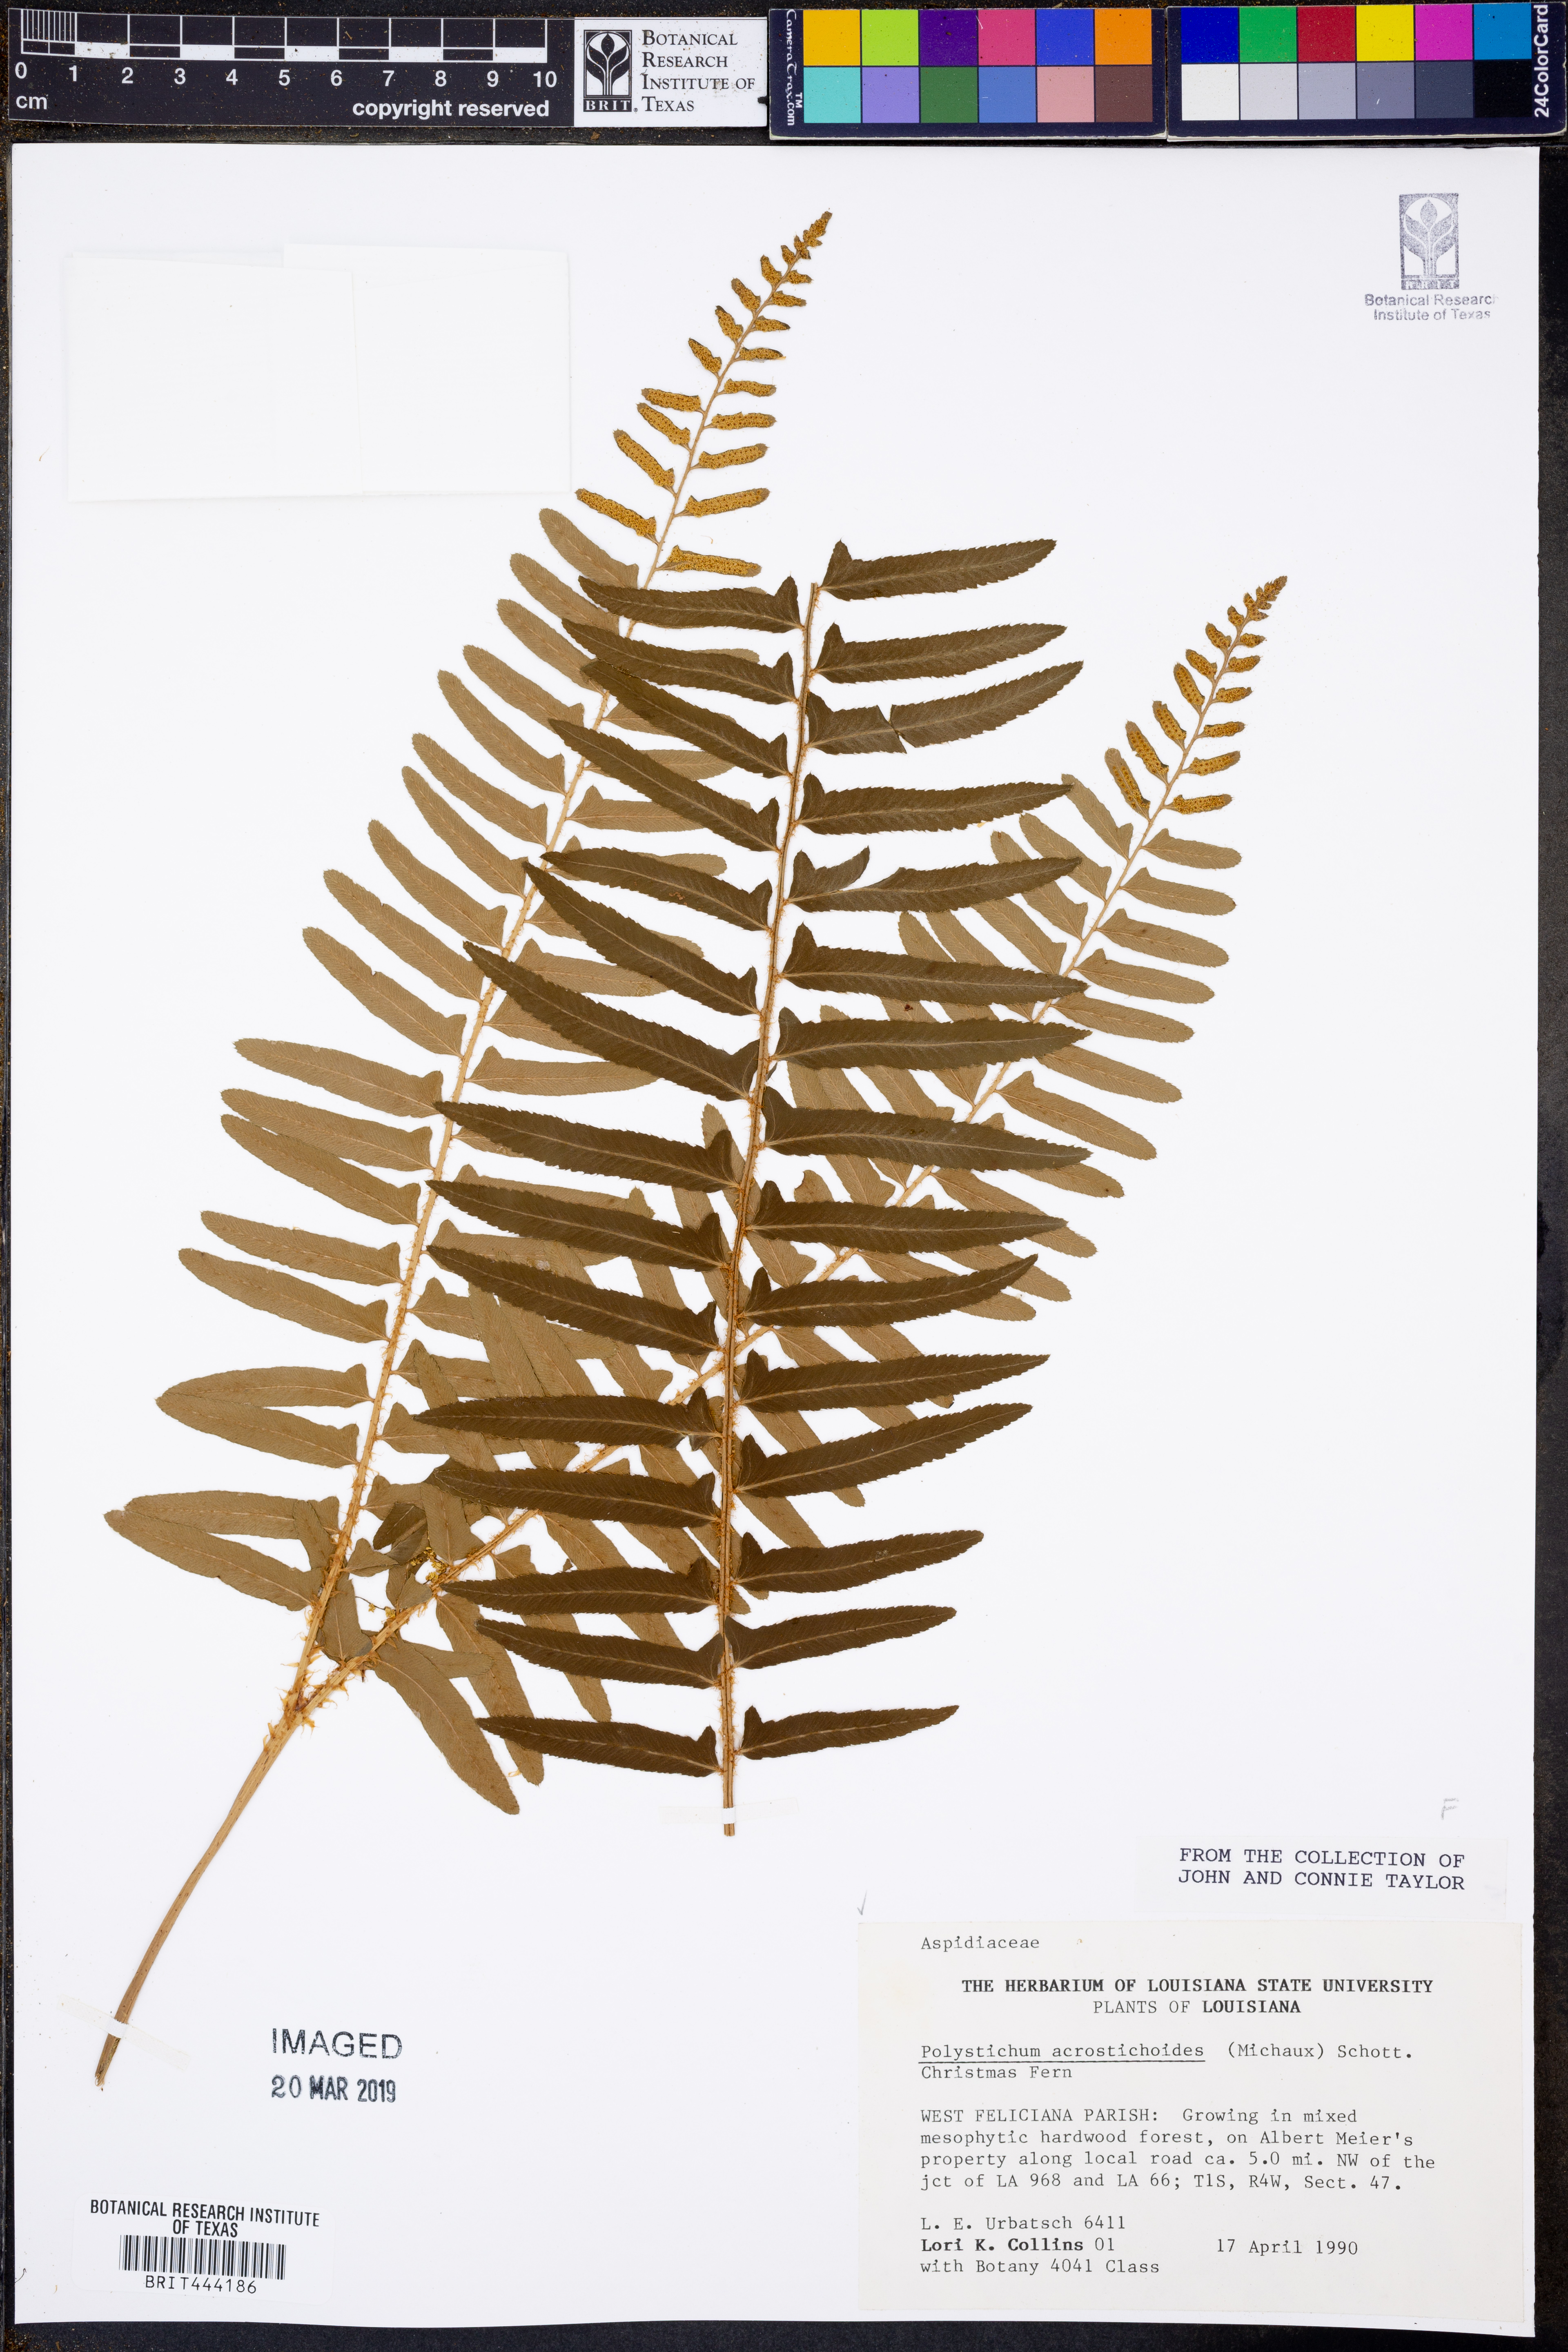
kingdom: Plantae
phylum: Tracheophyta
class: Polypodiopsida
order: Polypodiales
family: Dryopteridaceae
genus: Polystichum
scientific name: Polystichum acrostichoides
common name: Christmas fern
